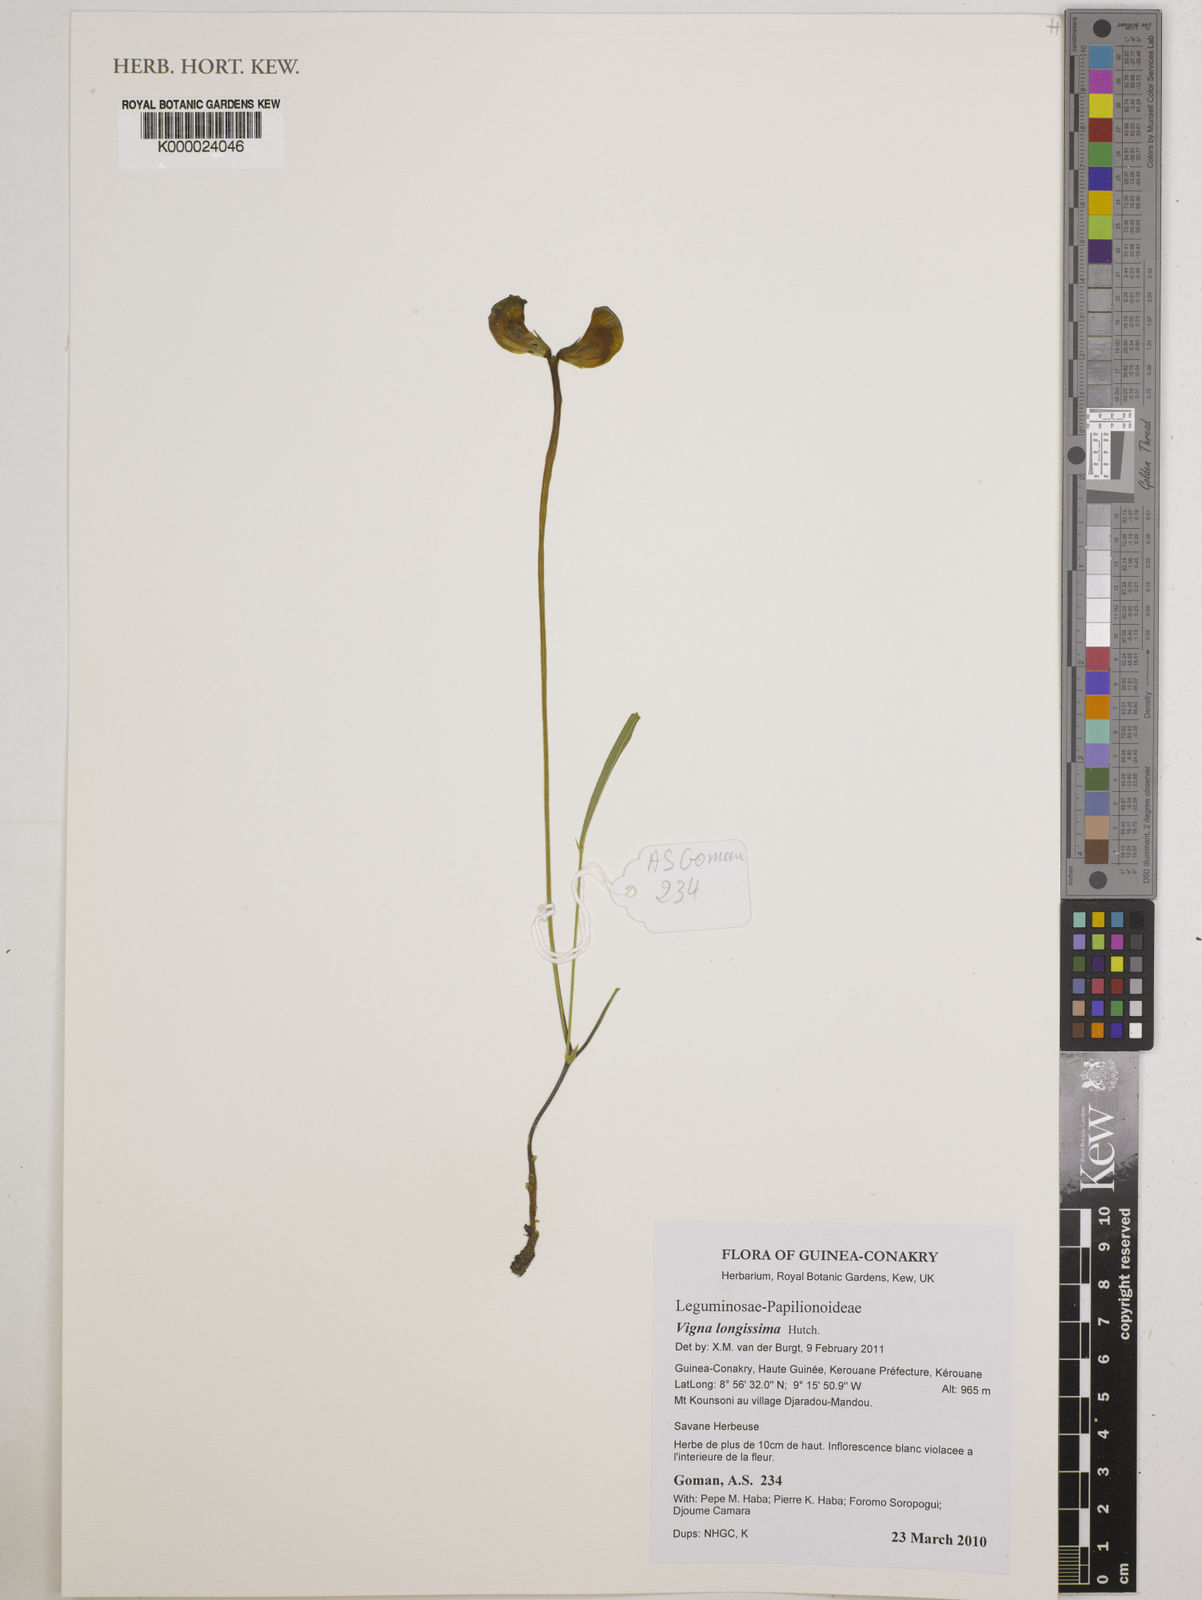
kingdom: Plantae
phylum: Tracheophyta
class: Magnoliopsida
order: Fabales
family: Fabaceae
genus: Vigna
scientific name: Vigna longissima
